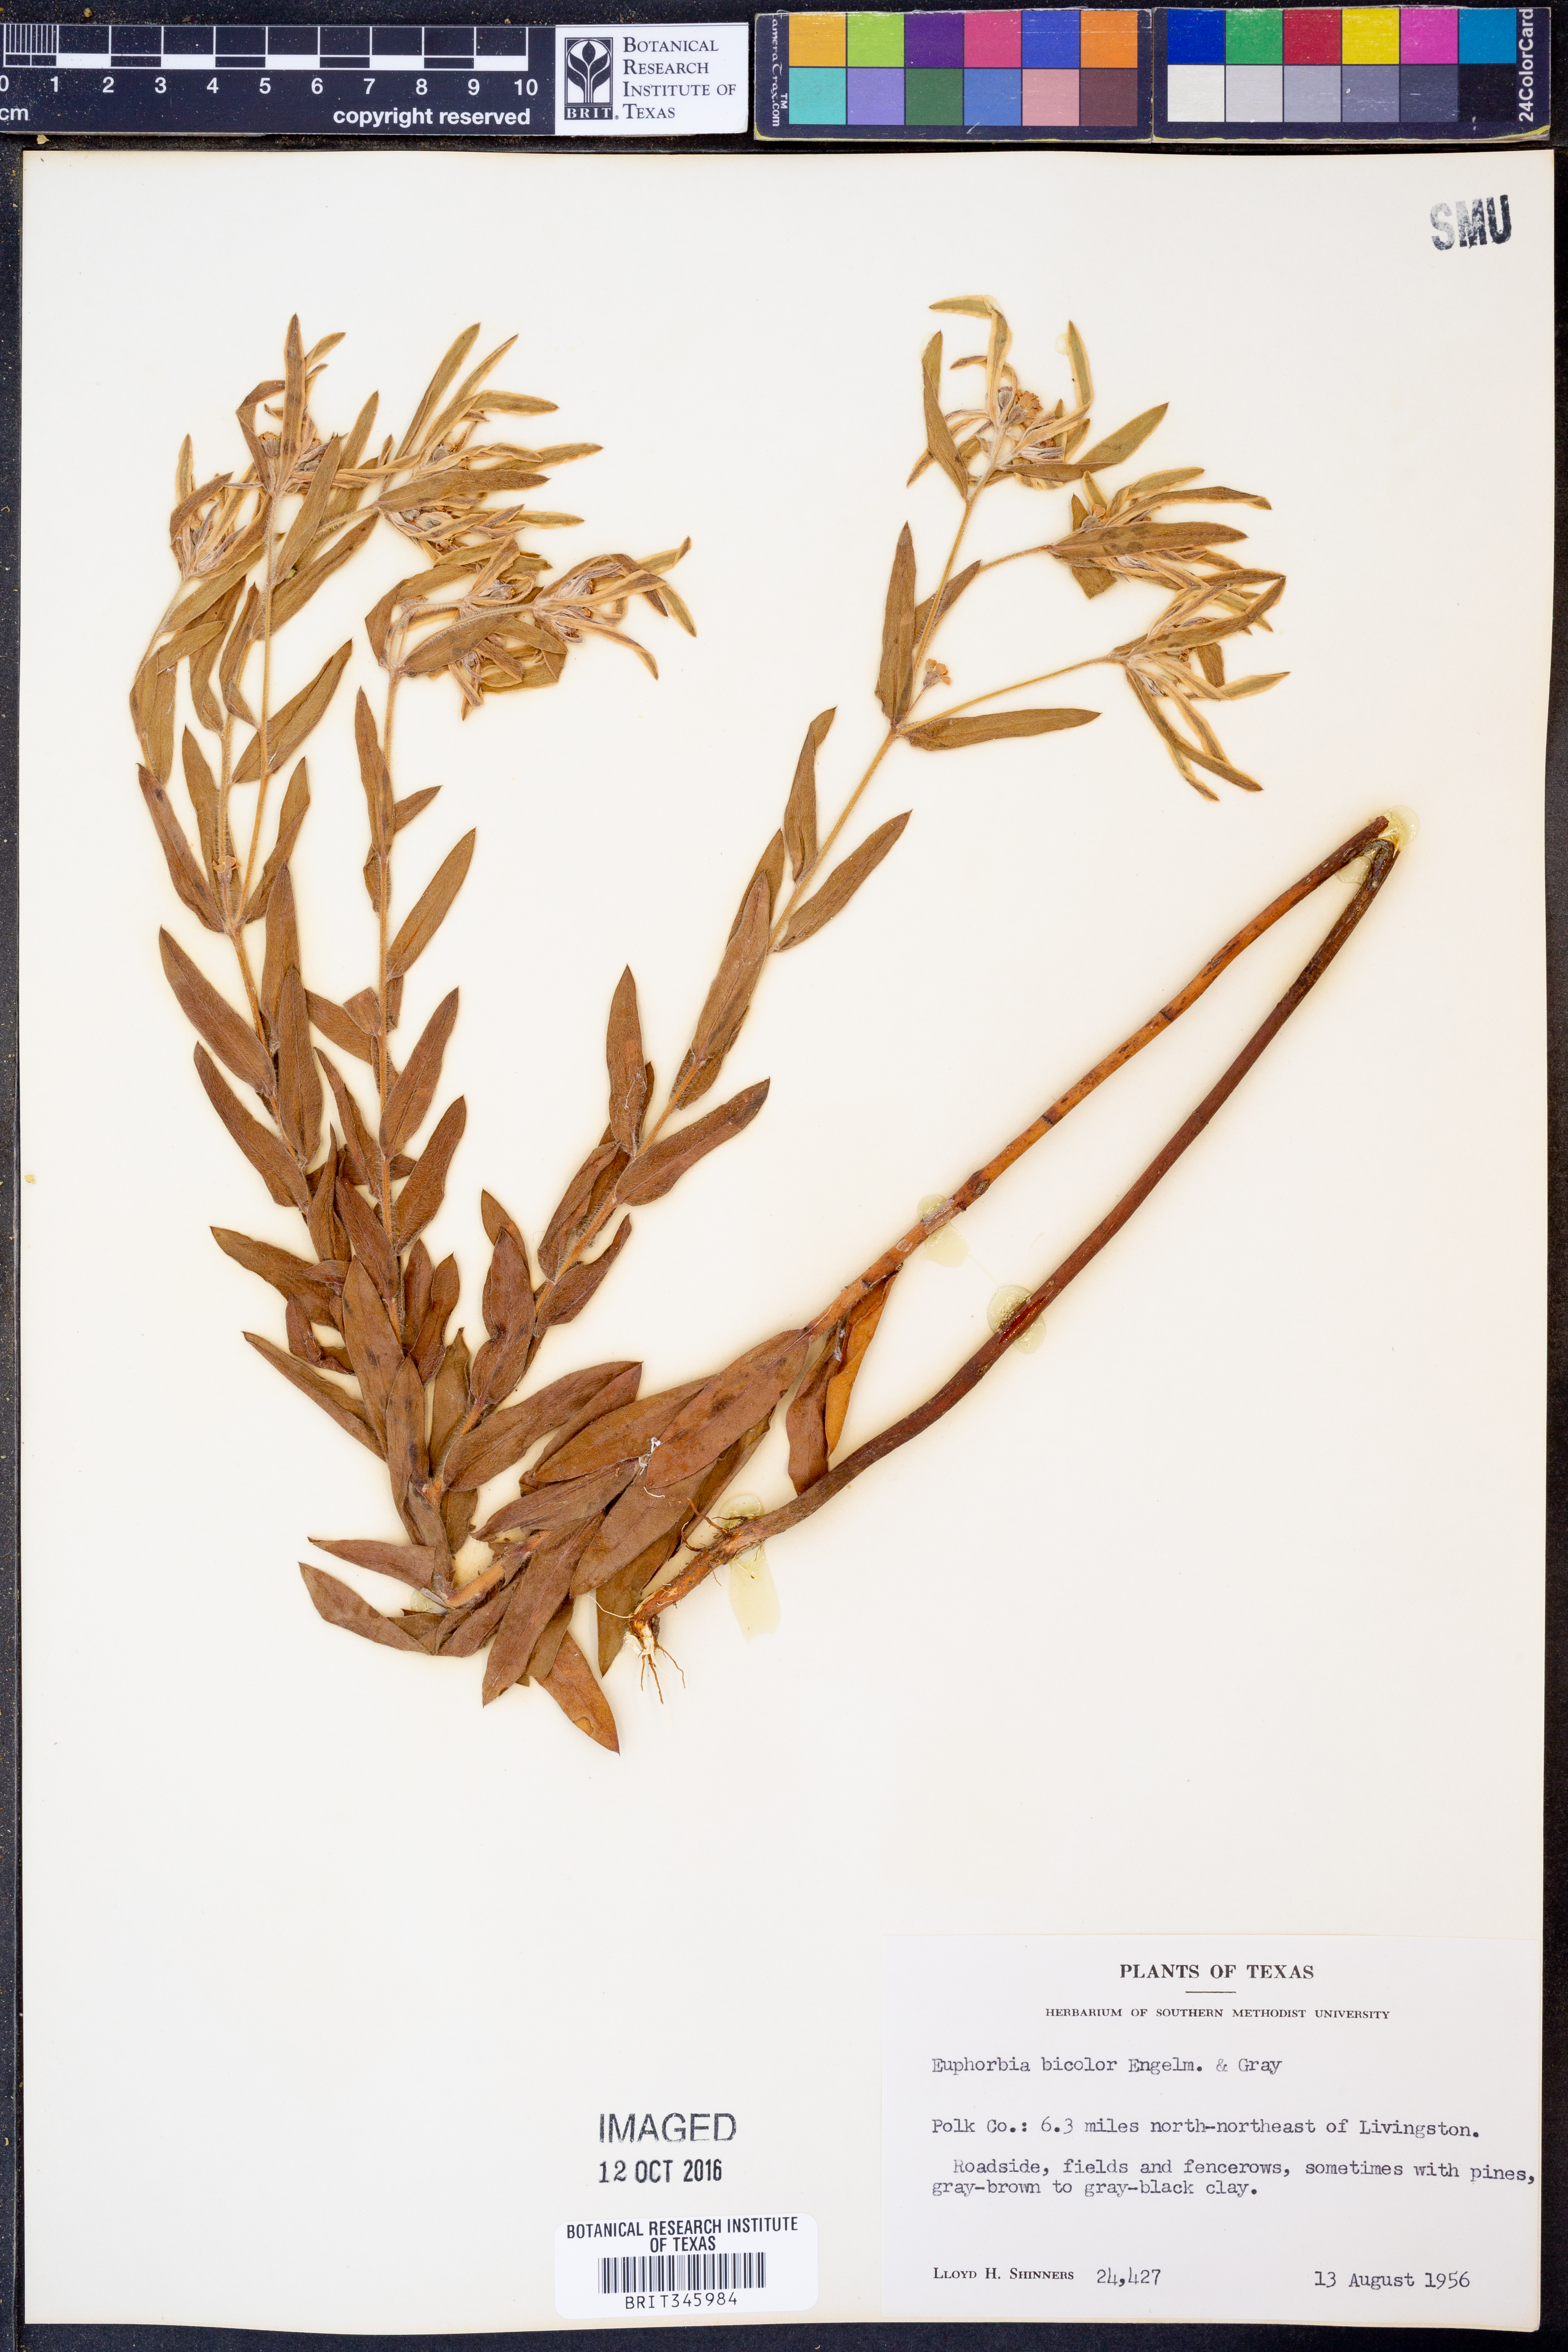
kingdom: Plantae
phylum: Tracheophyta
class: Magnoliopsida
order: Malpighiales
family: Euphorbiaceae
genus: Euphorbia
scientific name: Euphorbia bicolor
